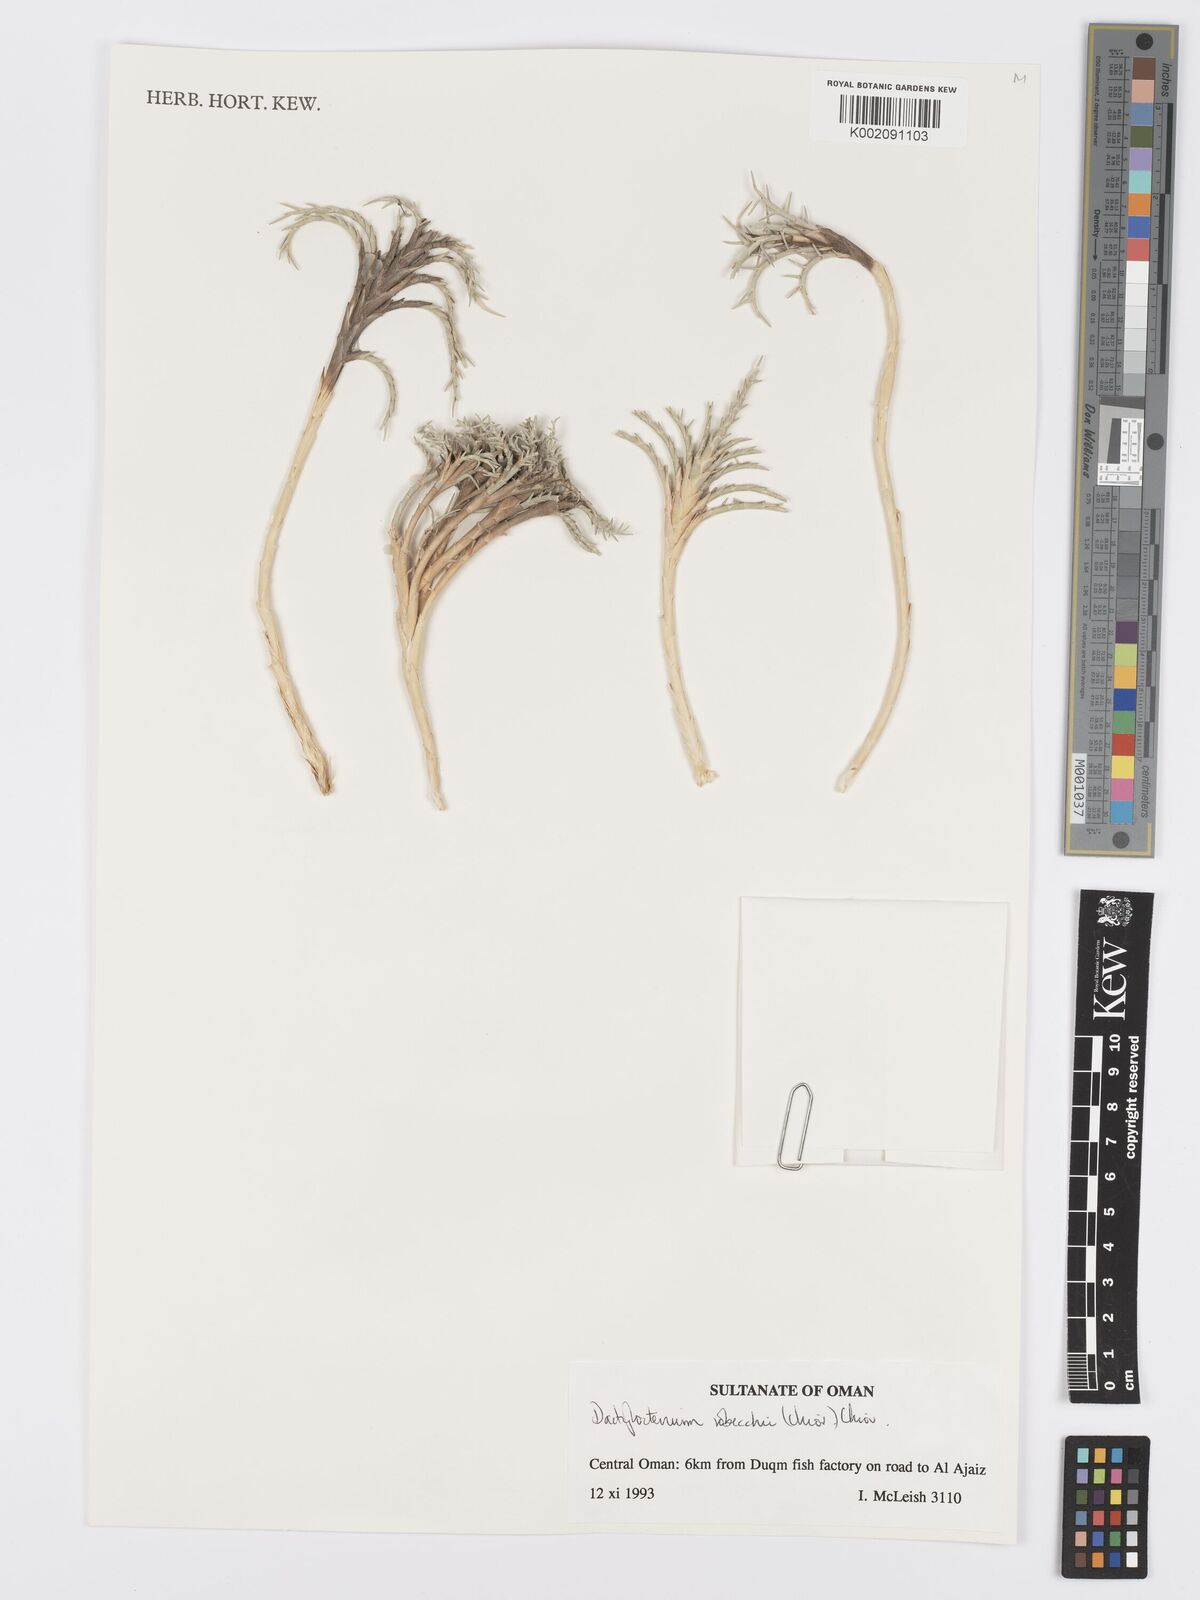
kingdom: Plantae
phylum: Tracheophyta
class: Liliopsida
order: Poales
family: Poaceae
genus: Dactyloctenium
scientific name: Dactyloctenium robecchii
